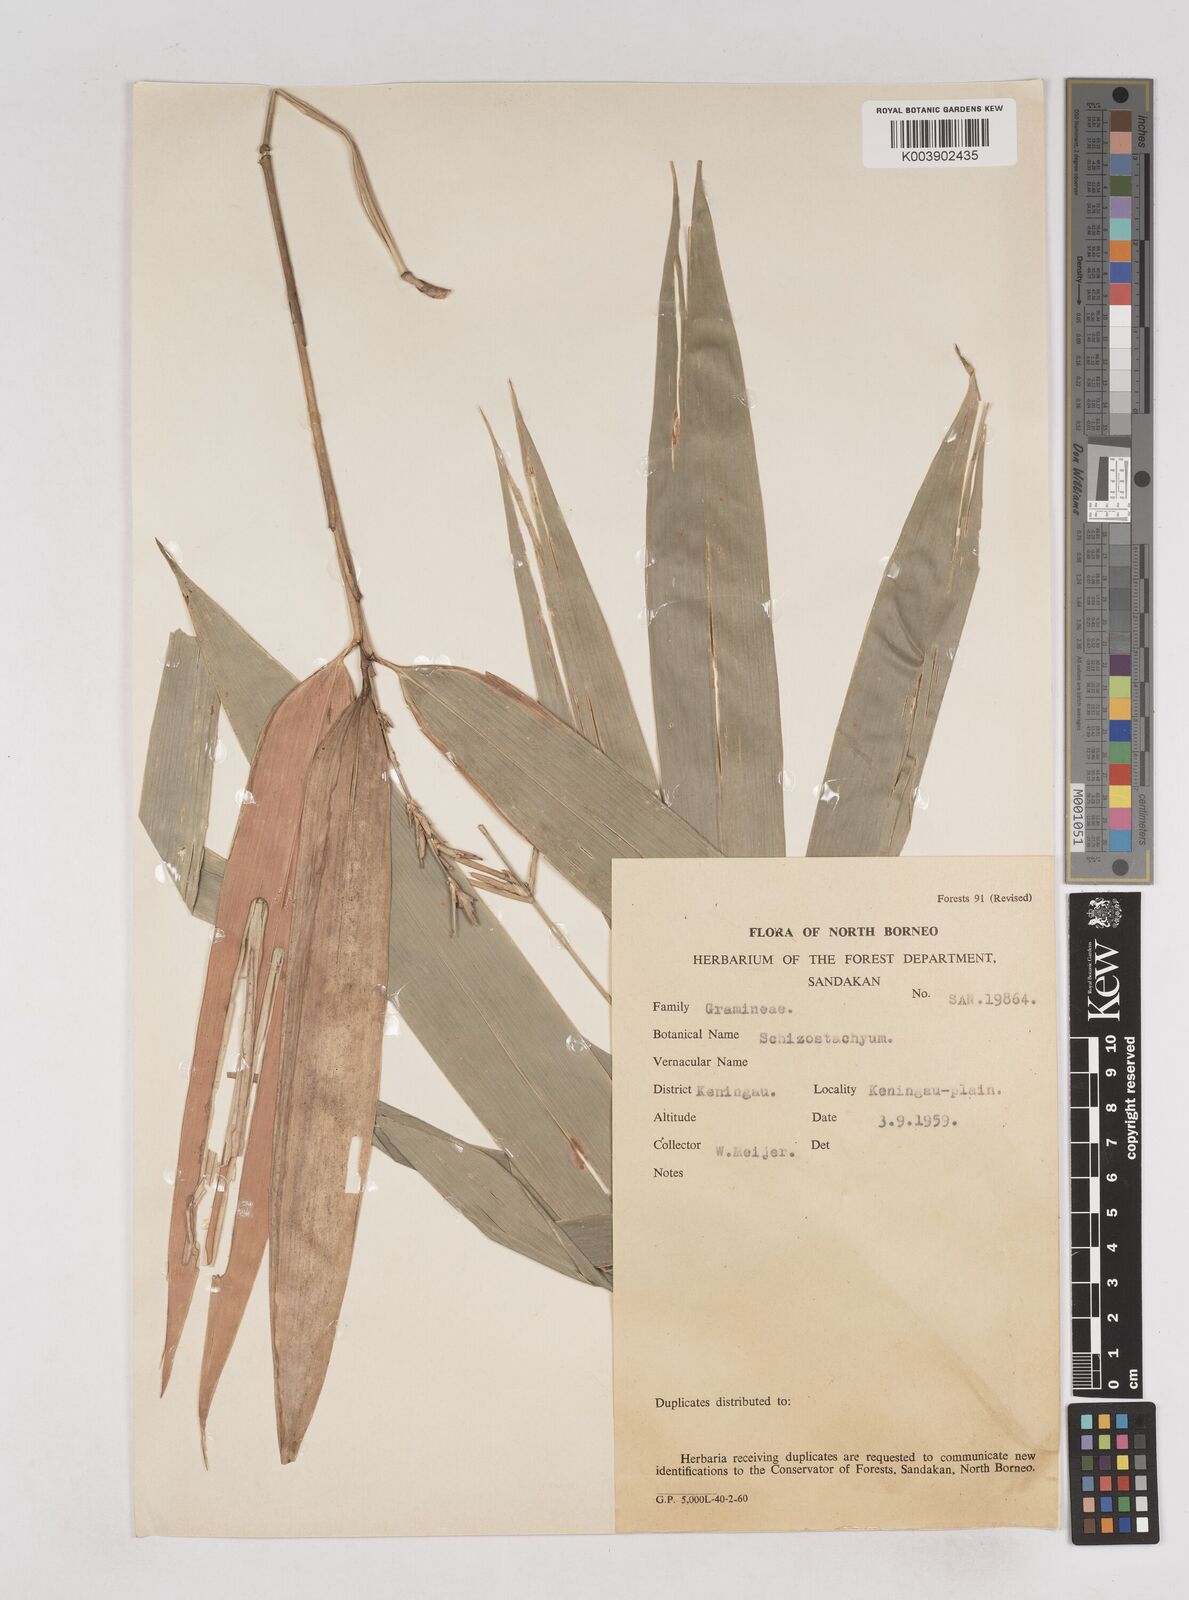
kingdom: Plantae
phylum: Tracheophyta
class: Liliopsida
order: Poales
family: Poaceae
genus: Schizostachyum
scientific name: Schizostachyum
